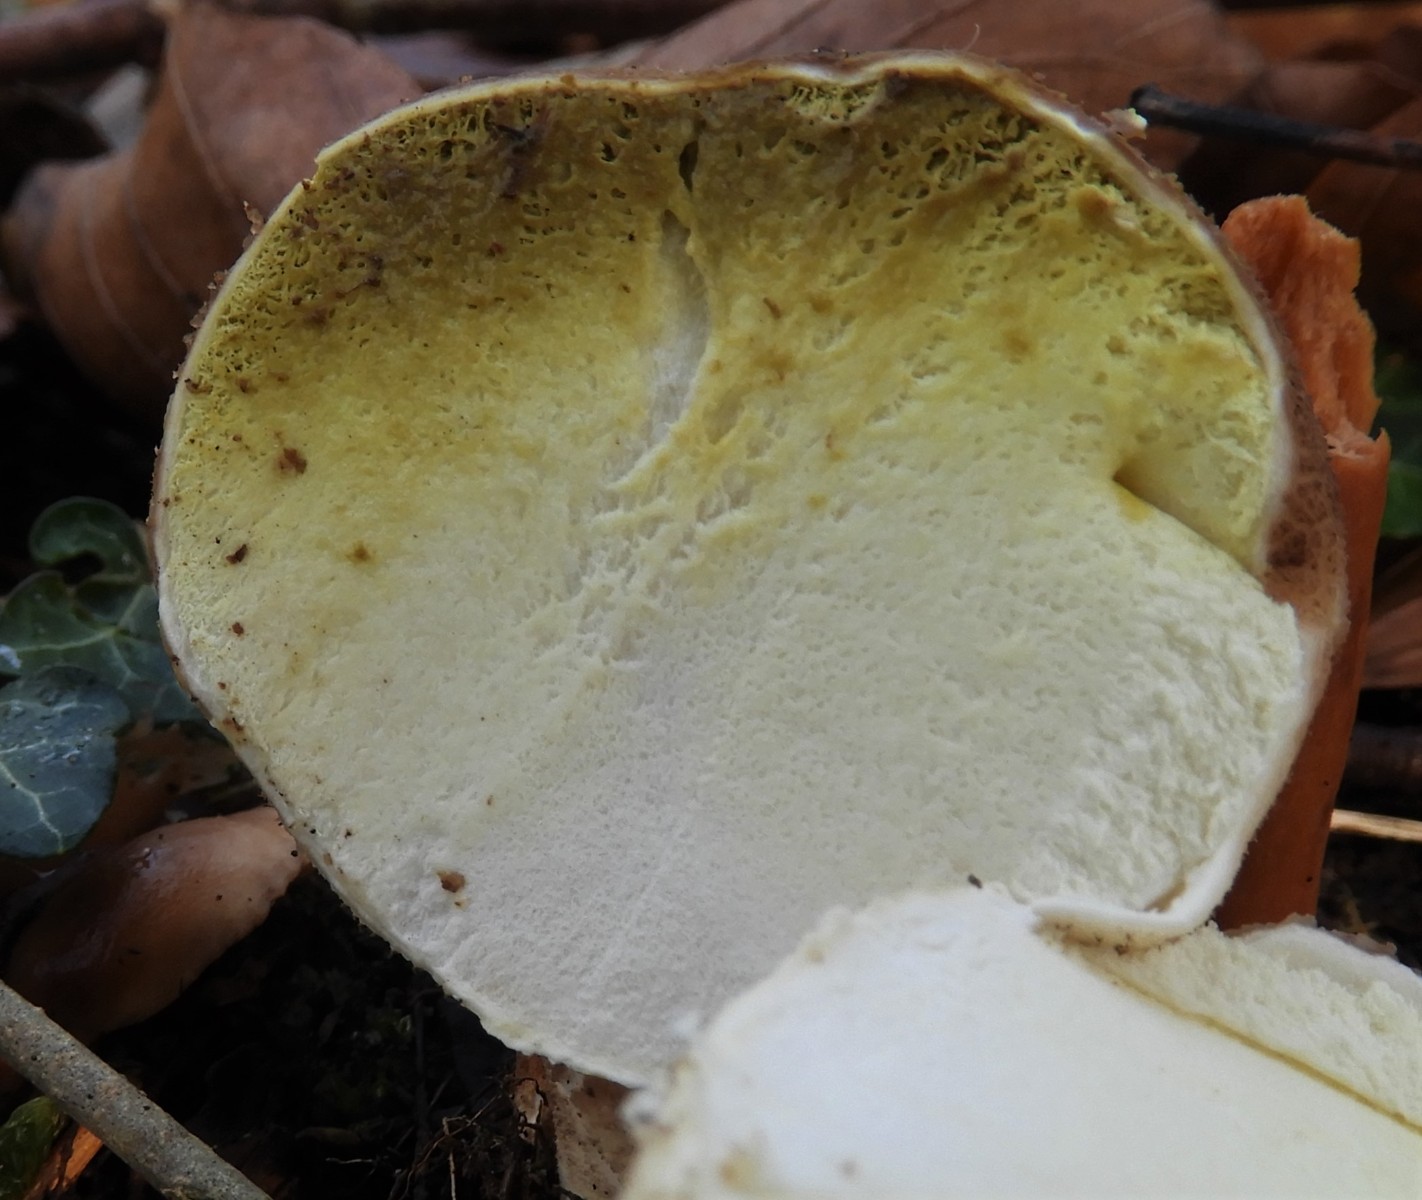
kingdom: Fungi
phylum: Basidiomycota
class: Agaricomycetes
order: Agaricales
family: Lycoperdaceae
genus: Apioperdon
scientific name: Apioperdon pyriforme
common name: pære-støvbold
